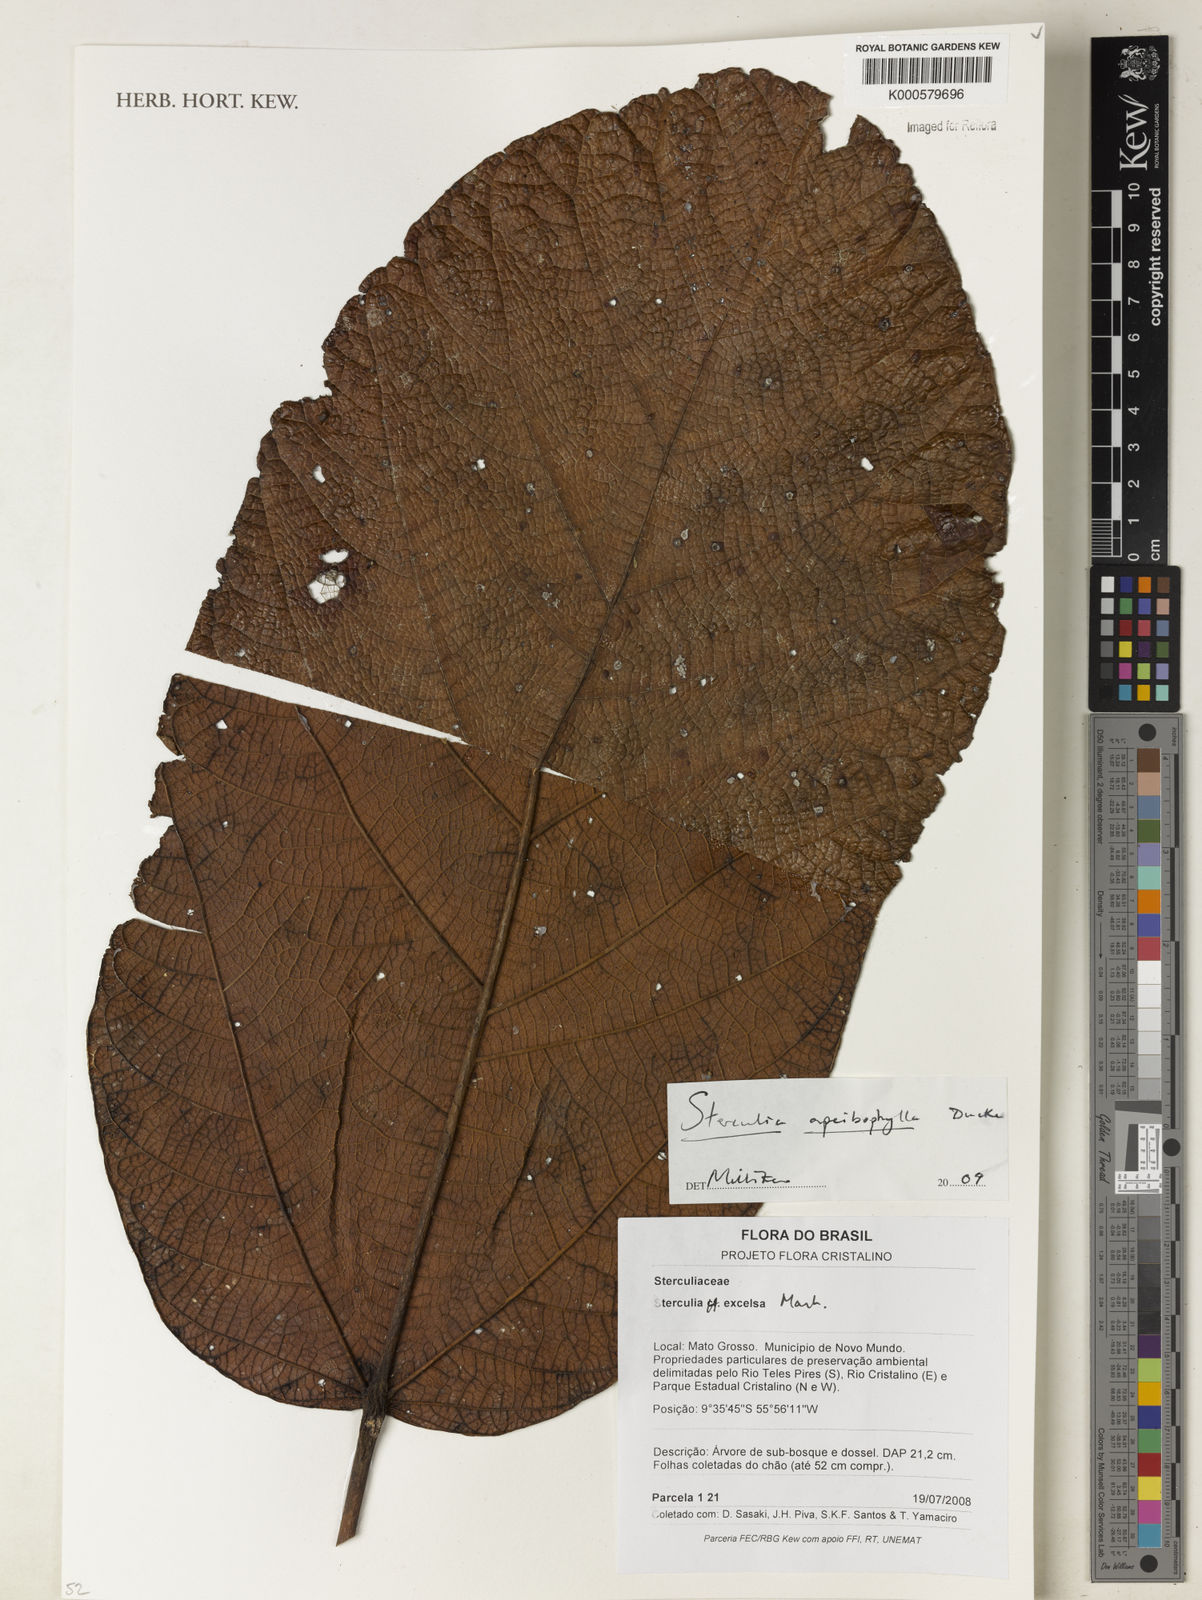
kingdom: Plantae
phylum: Tracheophyta
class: Magnoliopsida
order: Malvales
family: Malvaceae
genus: Sterculia
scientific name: Sterculia apeibophylla
